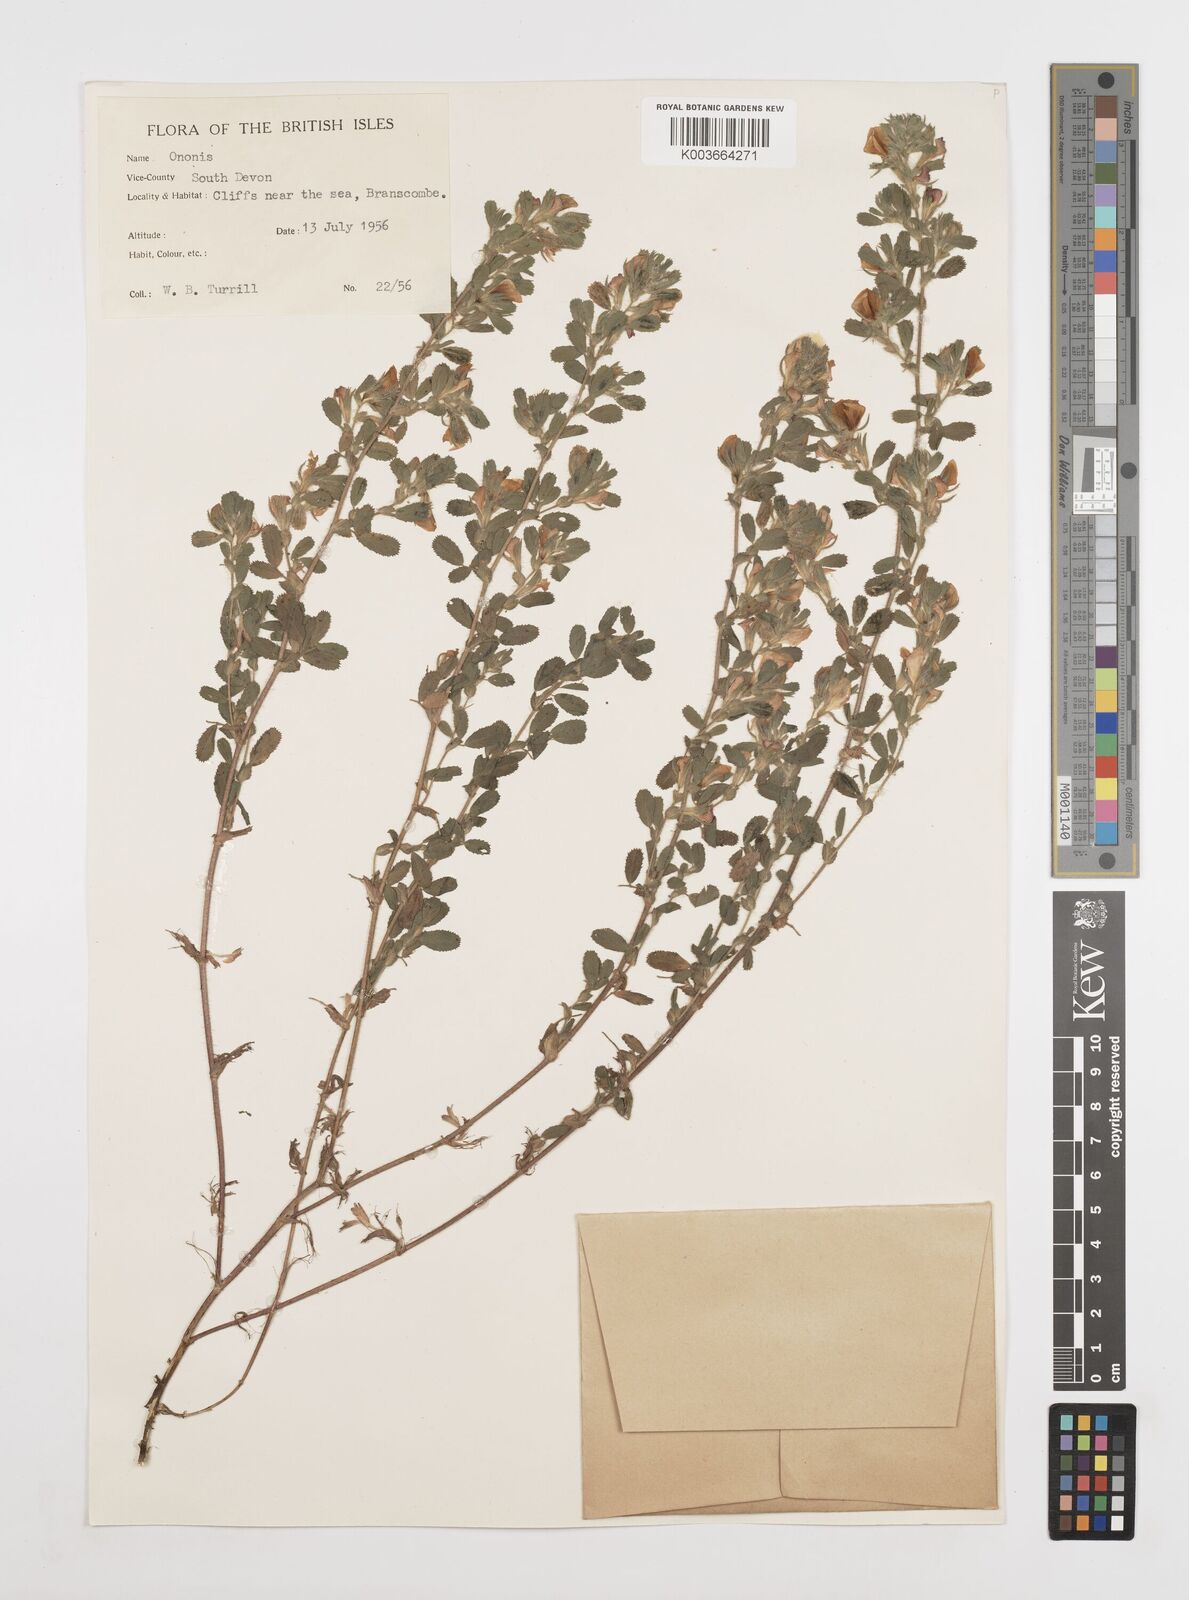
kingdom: Plantae
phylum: Tracheophyta
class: Magnoliopsida
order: Fabales
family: Fabaceae
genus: Ononis
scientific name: Ononis spinosa
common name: Spiny restharrow
